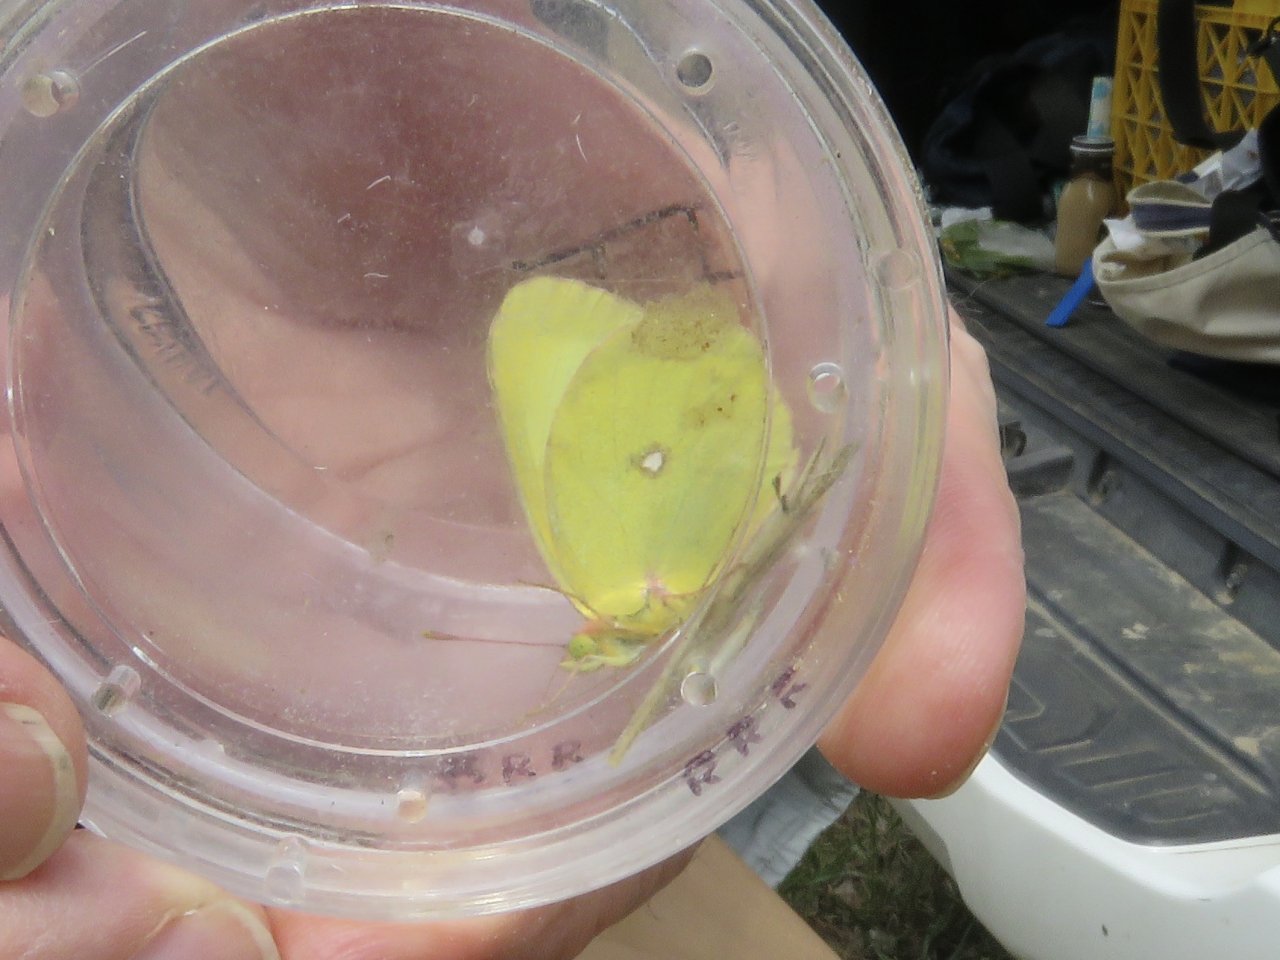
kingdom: Animalia
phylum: Arthropoda
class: Insecta
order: Lepidoptera
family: Pieridae
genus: Colias
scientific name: Colias occidentalis
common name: Western Sulphur
